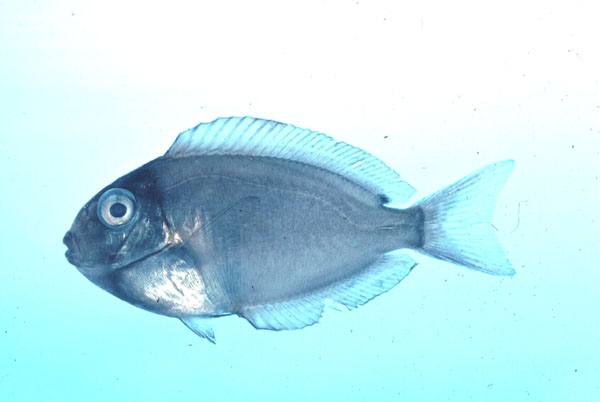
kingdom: Animalia
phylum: Chordata
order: Perciformes
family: Acanthuridae
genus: Naso
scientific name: Naso
